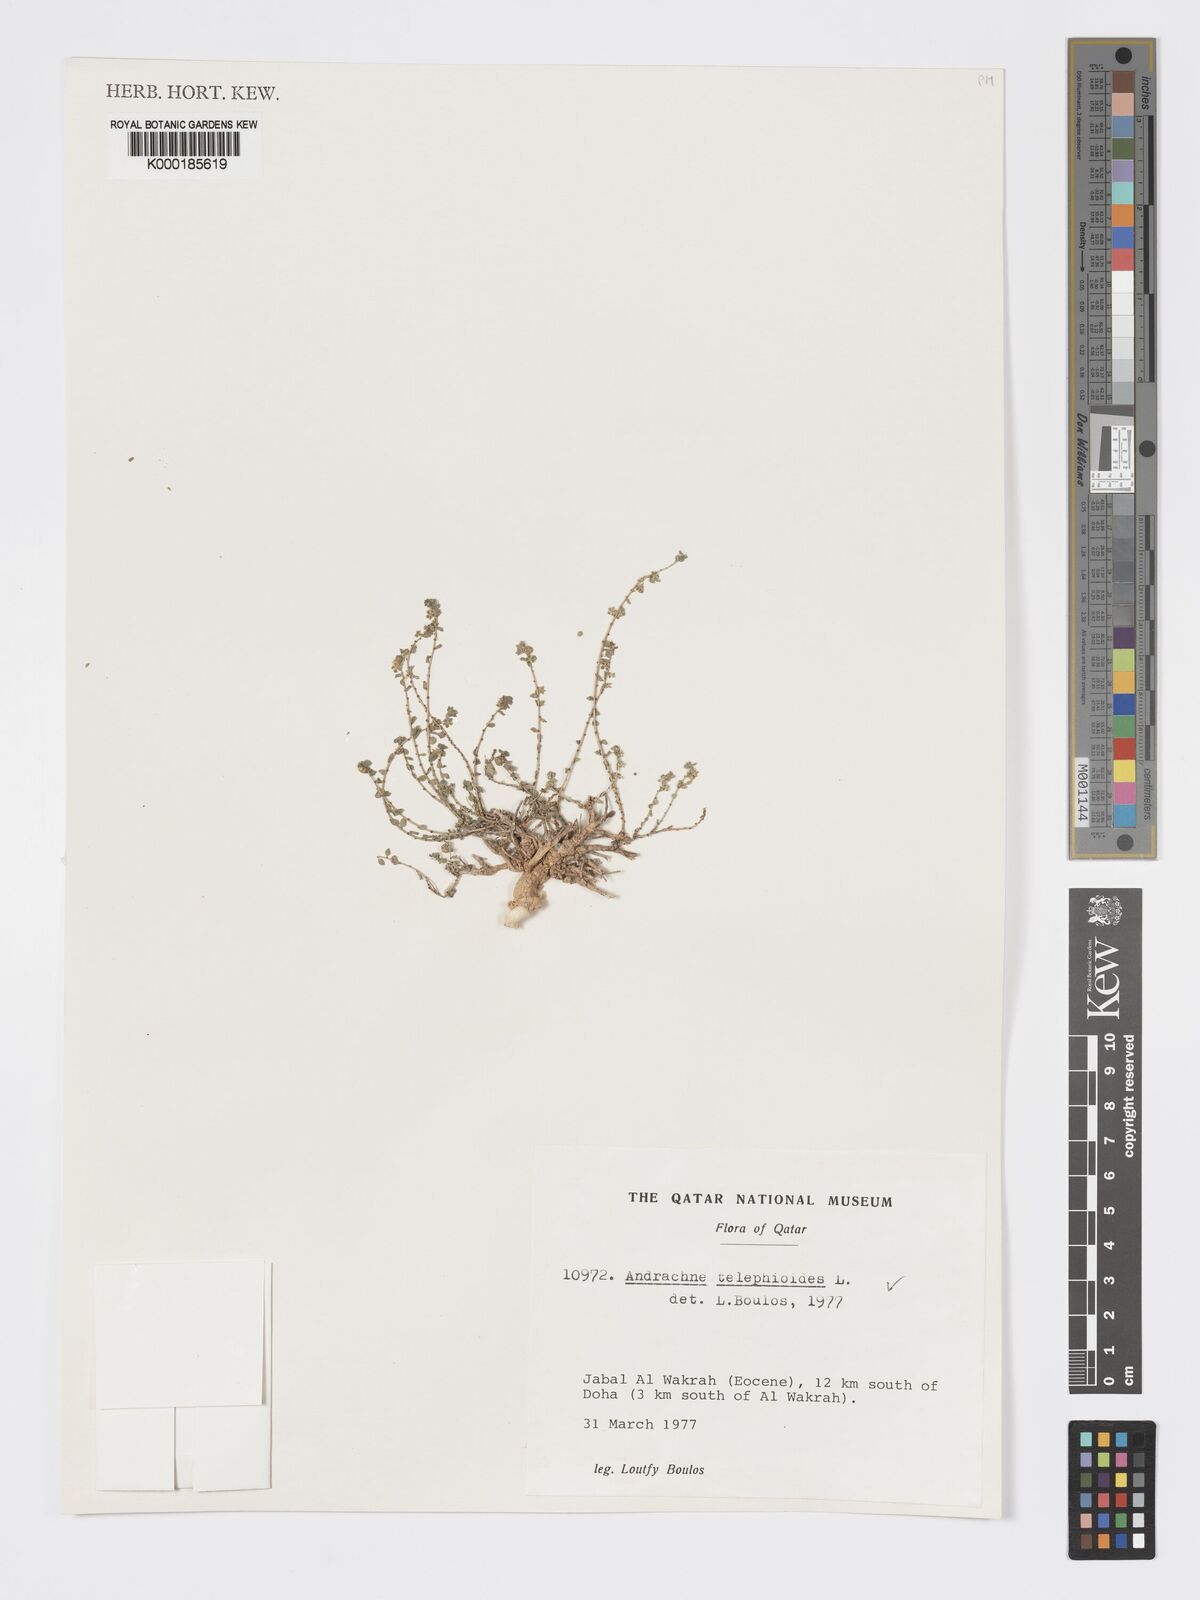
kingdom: Plantae
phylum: Tracheophyta
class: Magnoliopsida
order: Malpighiales
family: Phyllanthaceae
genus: Andrachne
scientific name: Andrachne telephioides
